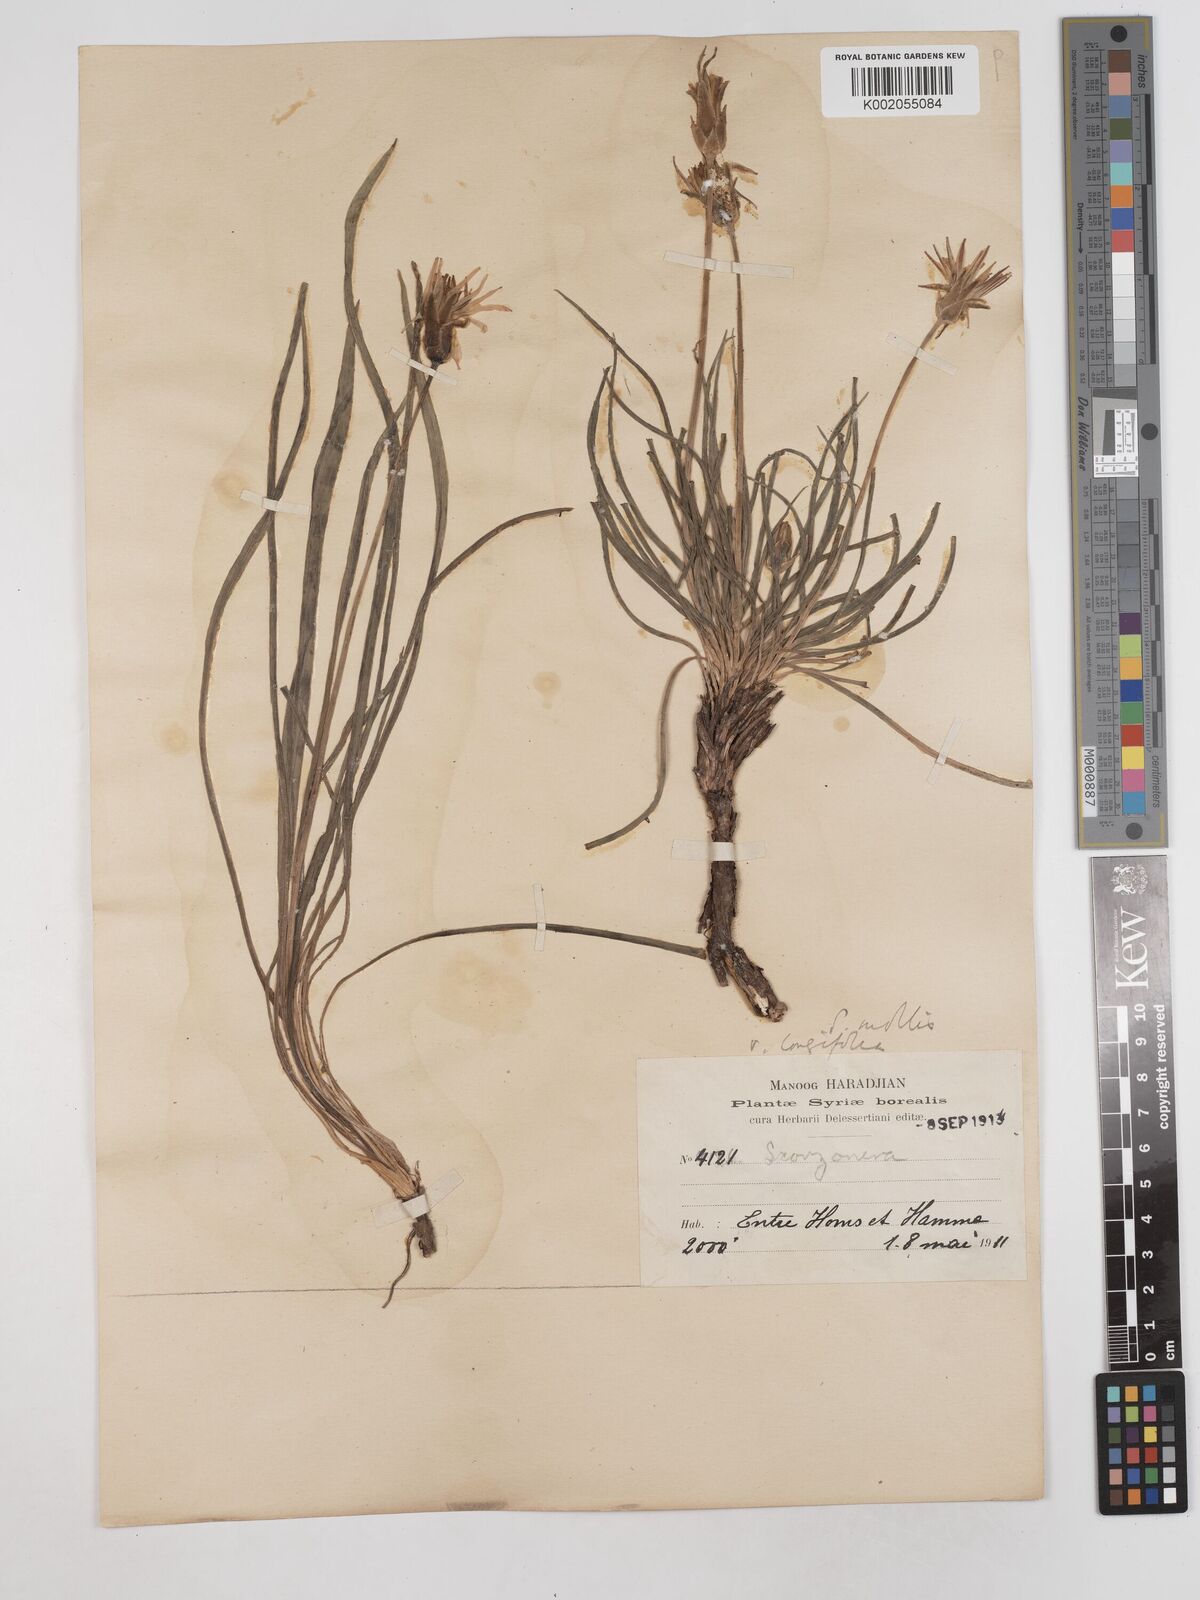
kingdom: Plantae
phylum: Tracheophyta
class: Magnoliopsida
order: Asterales
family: Asteraceae
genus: Candollea
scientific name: Candollea mollis
